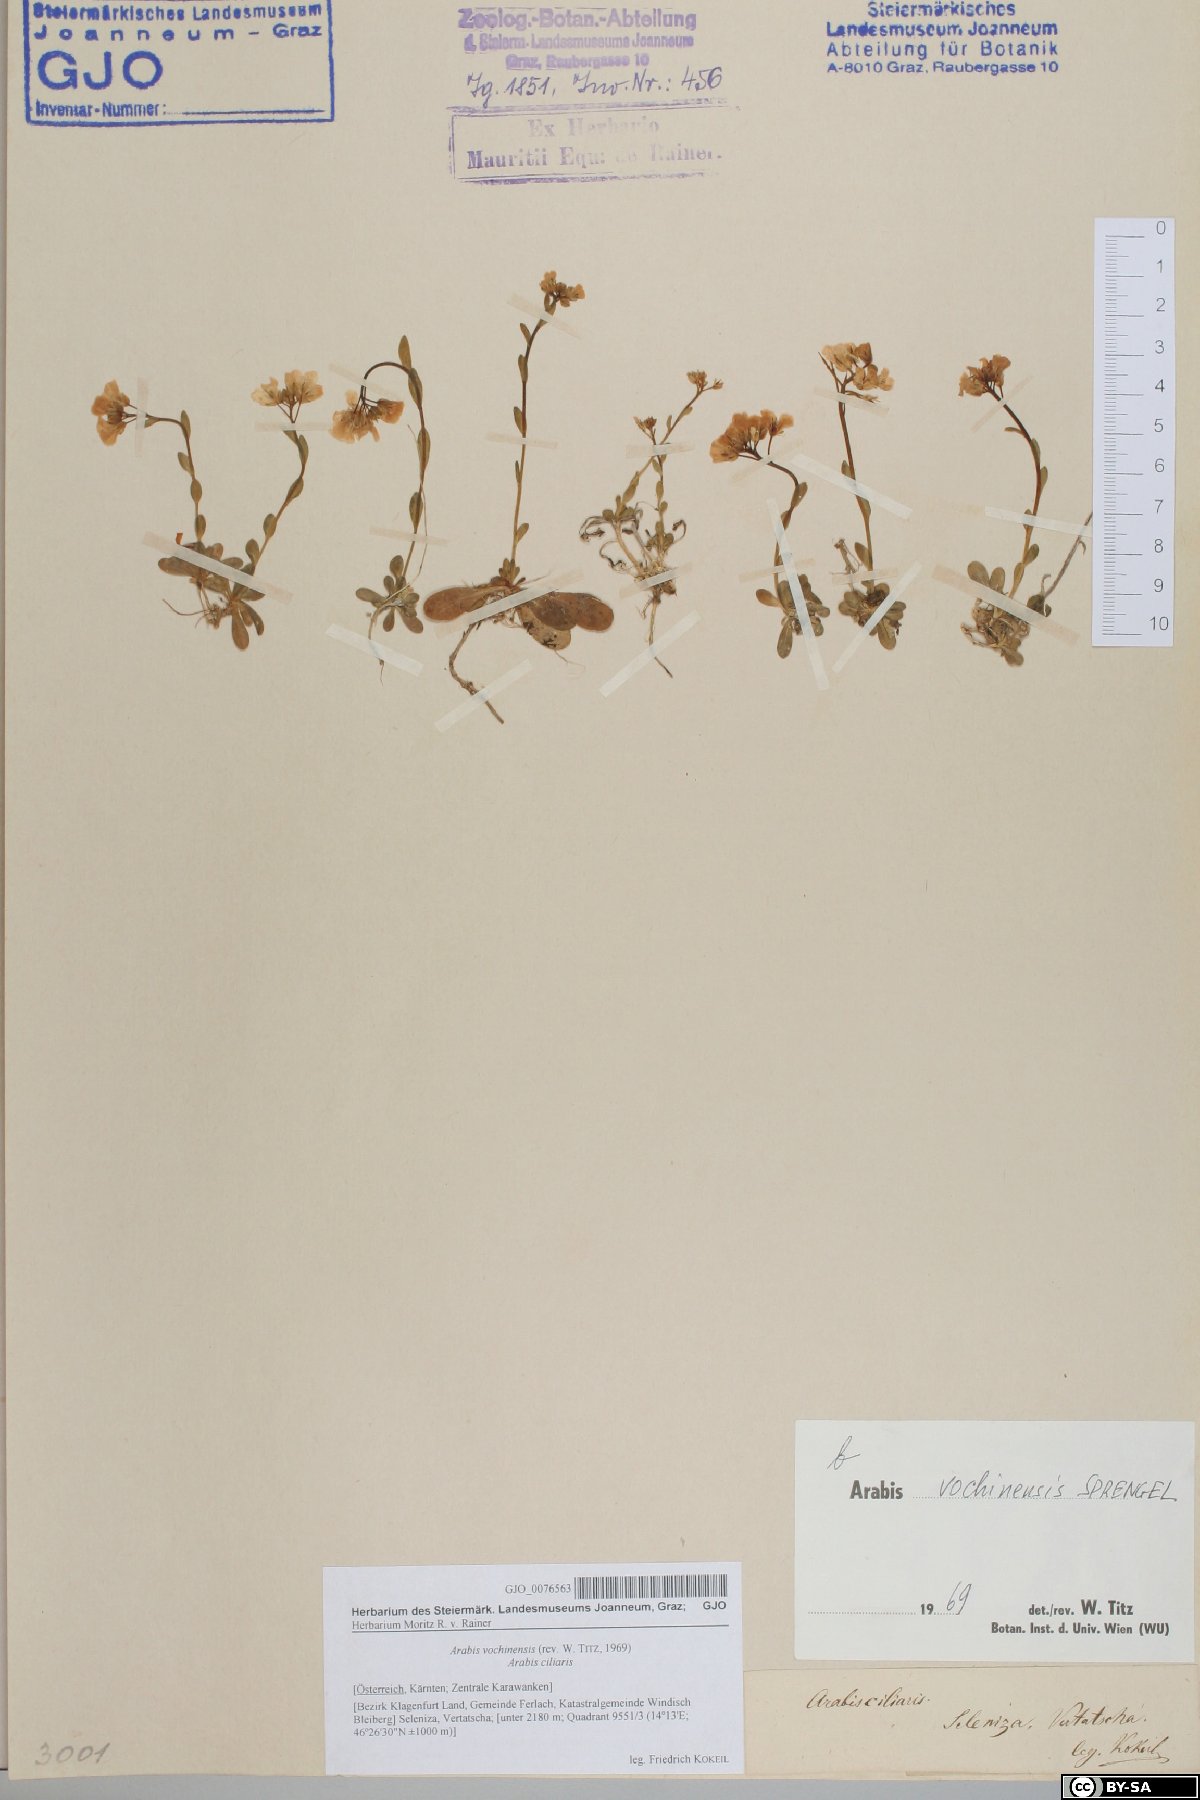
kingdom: Plantae
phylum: Tracheophyta
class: Magnoliopsida
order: Brassicales
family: Brassicaceae
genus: Arabis
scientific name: Arabis vochinensis
